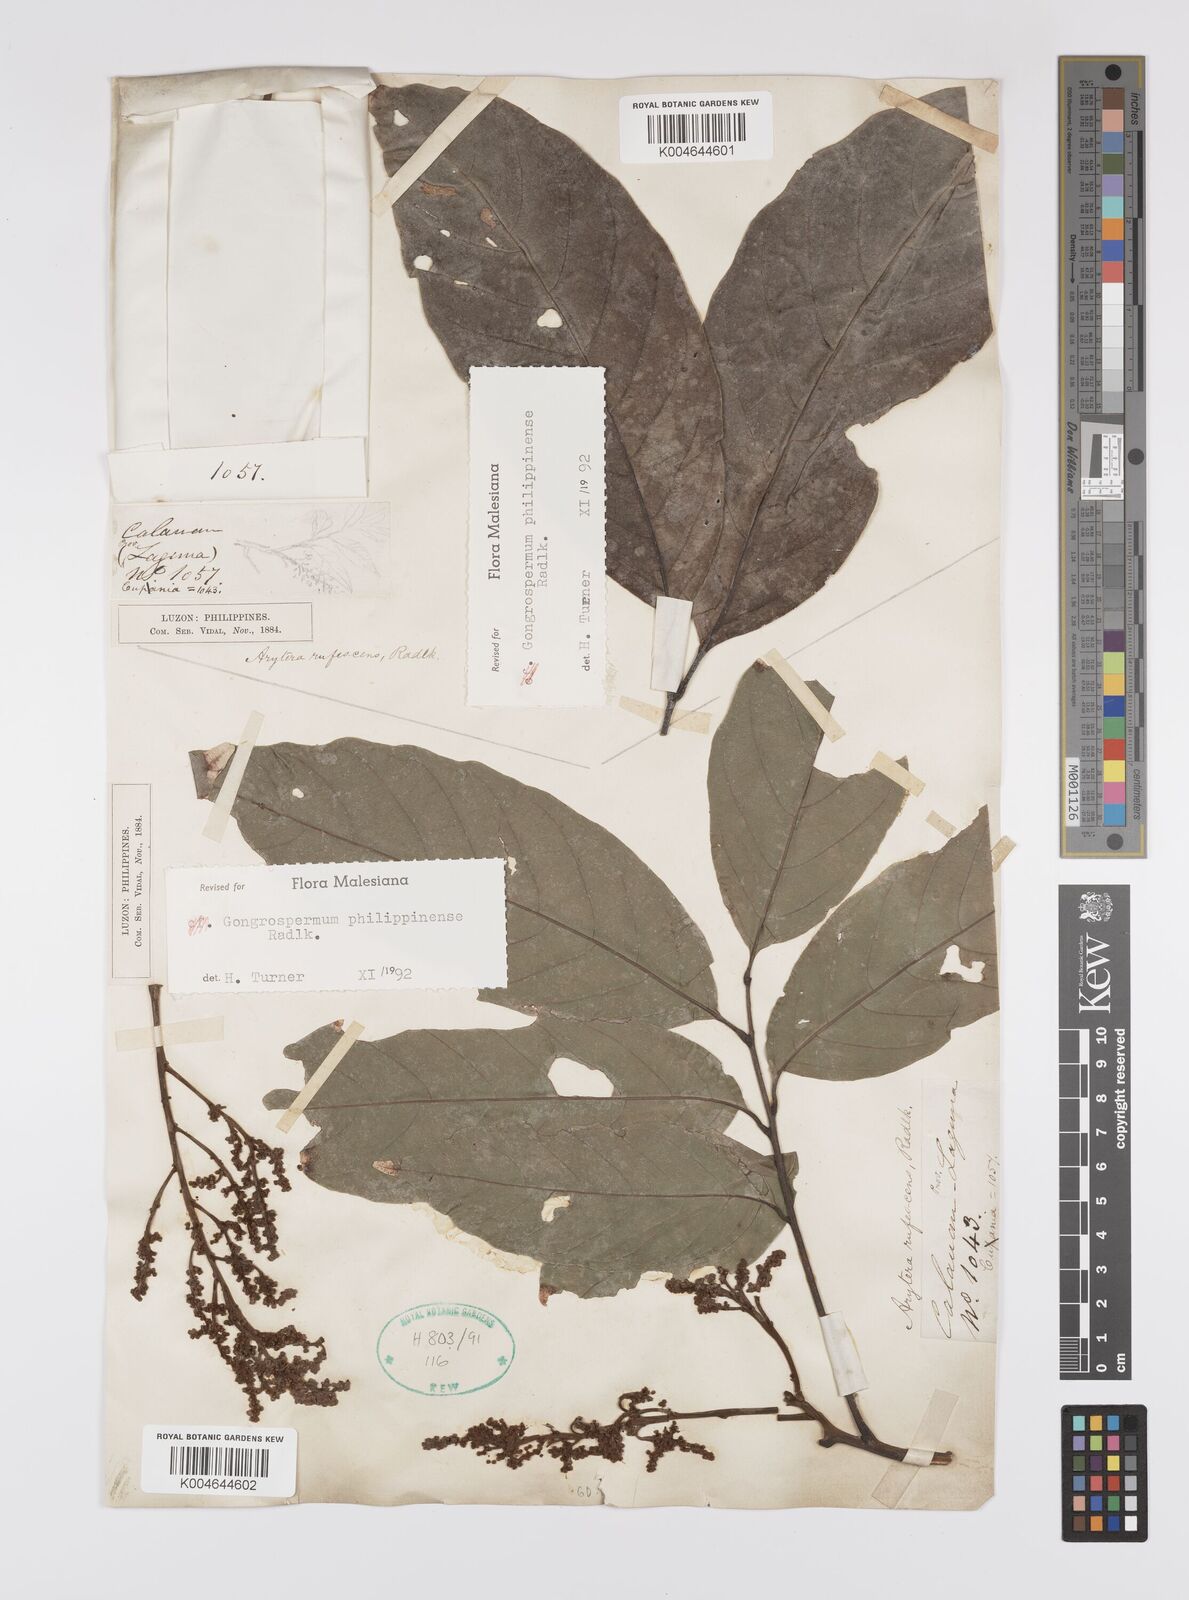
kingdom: Plantae
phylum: Tracheophyta
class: Magnoliopsida
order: Sapindales
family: Sapindaceae
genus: Gongrospermum
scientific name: Gongrospermum philippinense
